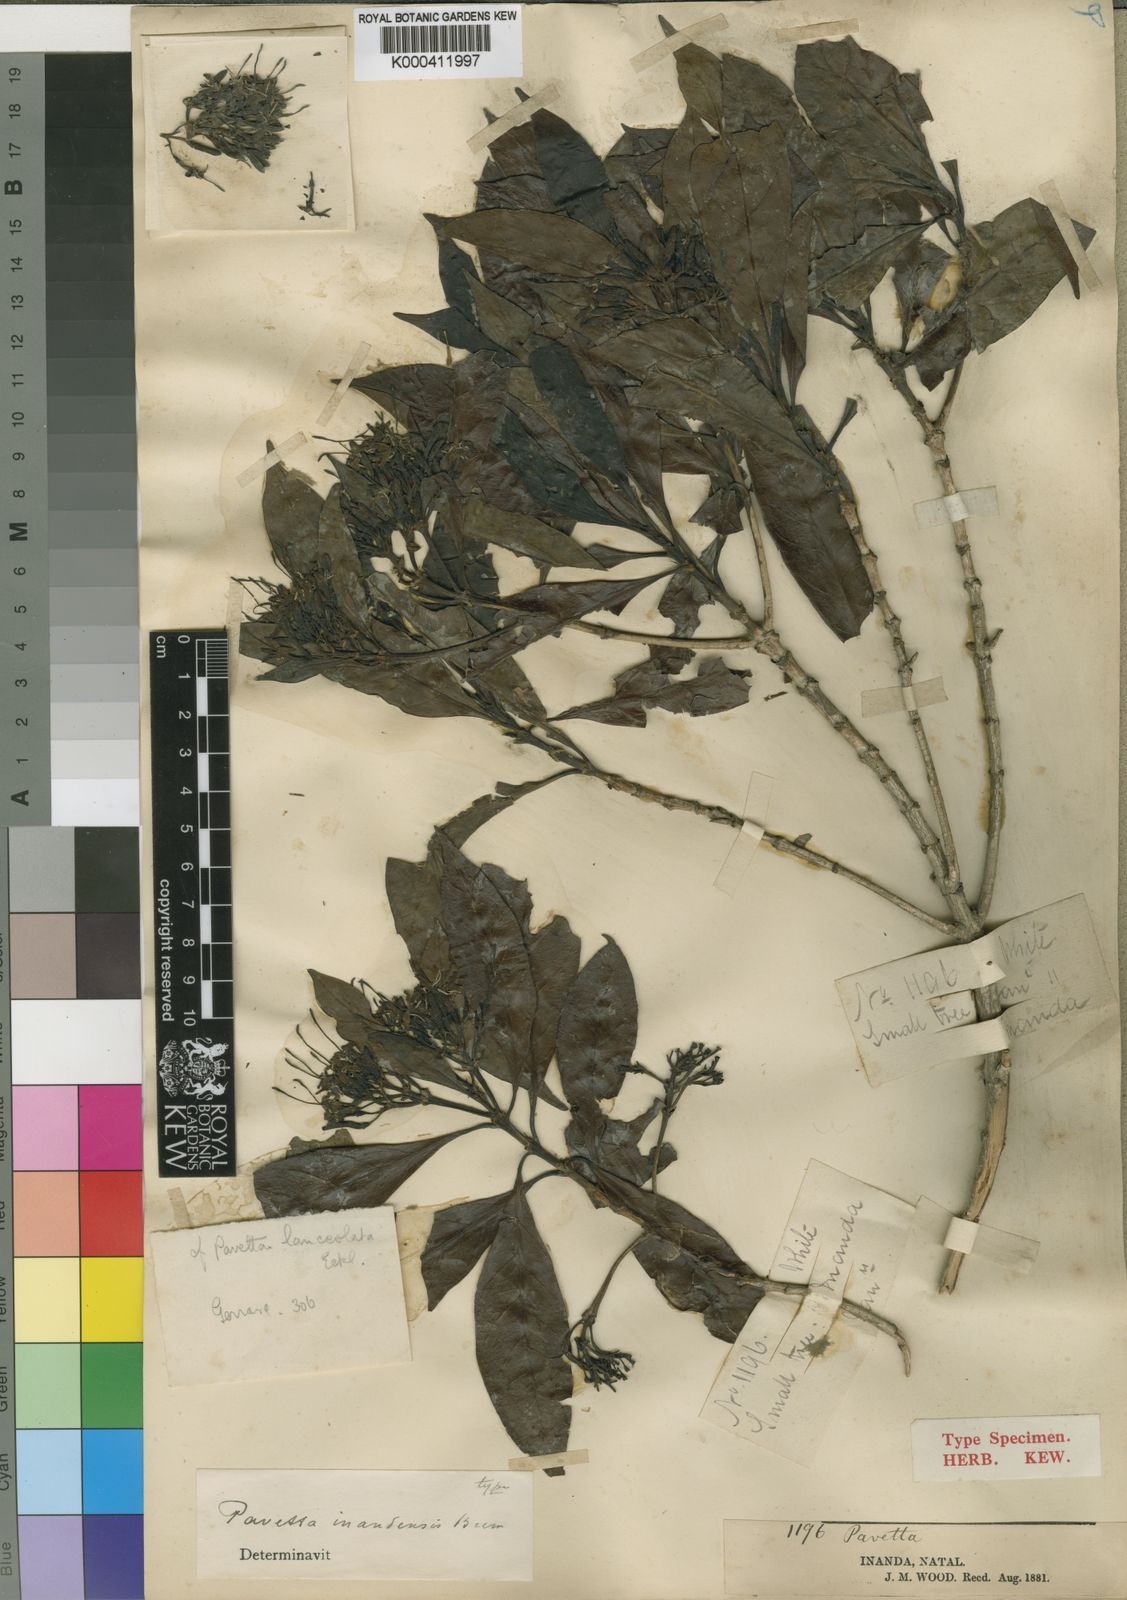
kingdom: Plantae
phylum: Tracheophyta
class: Magnoliopsida
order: Gentianales
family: Rubiaceae
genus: Pavetta
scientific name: Pavetta inandensis
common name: Forest brides-bush
